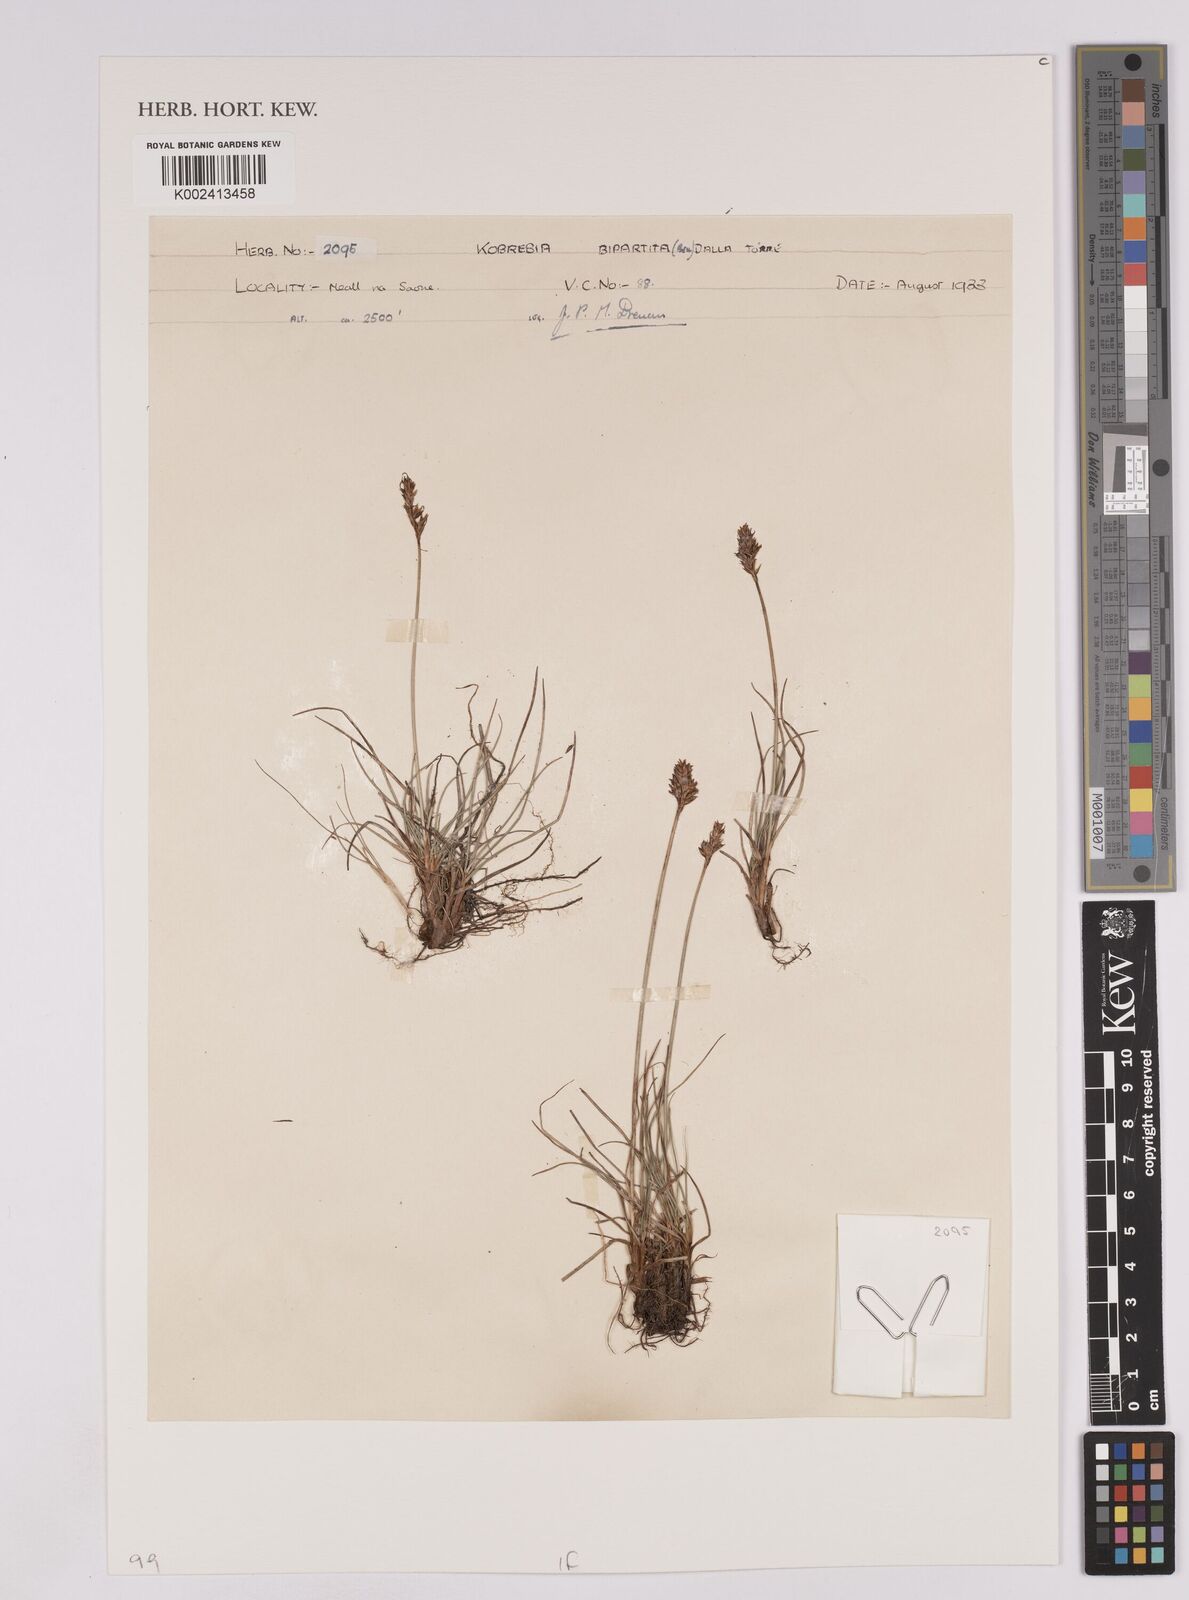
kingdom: Plantae
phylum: Tracheophyta
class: Liliopsida
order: Poales
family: Cyperaceae
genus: Carex
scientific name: Carex simpliciuscula
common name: Simple bog sedge
